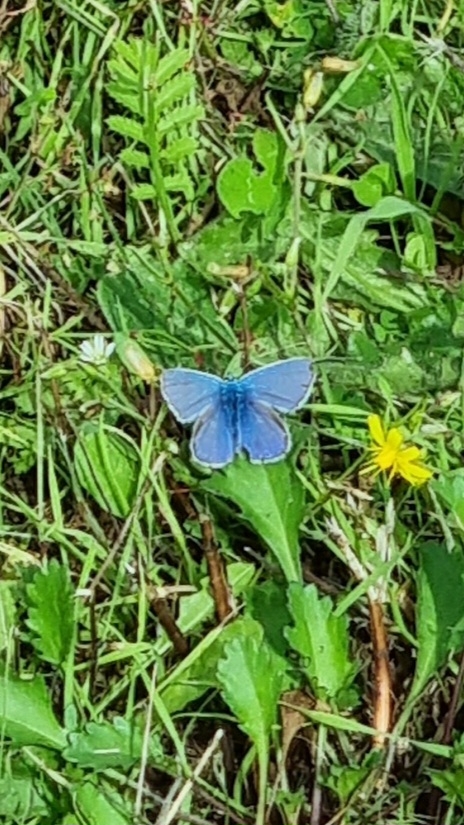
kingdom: Animalia
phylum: Arthropoda
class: Insecta
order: Lepidoptera
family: Lycaenidae
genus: Polyommatus
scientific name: Polyommatus icarus
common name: Almindelig blåfugl
